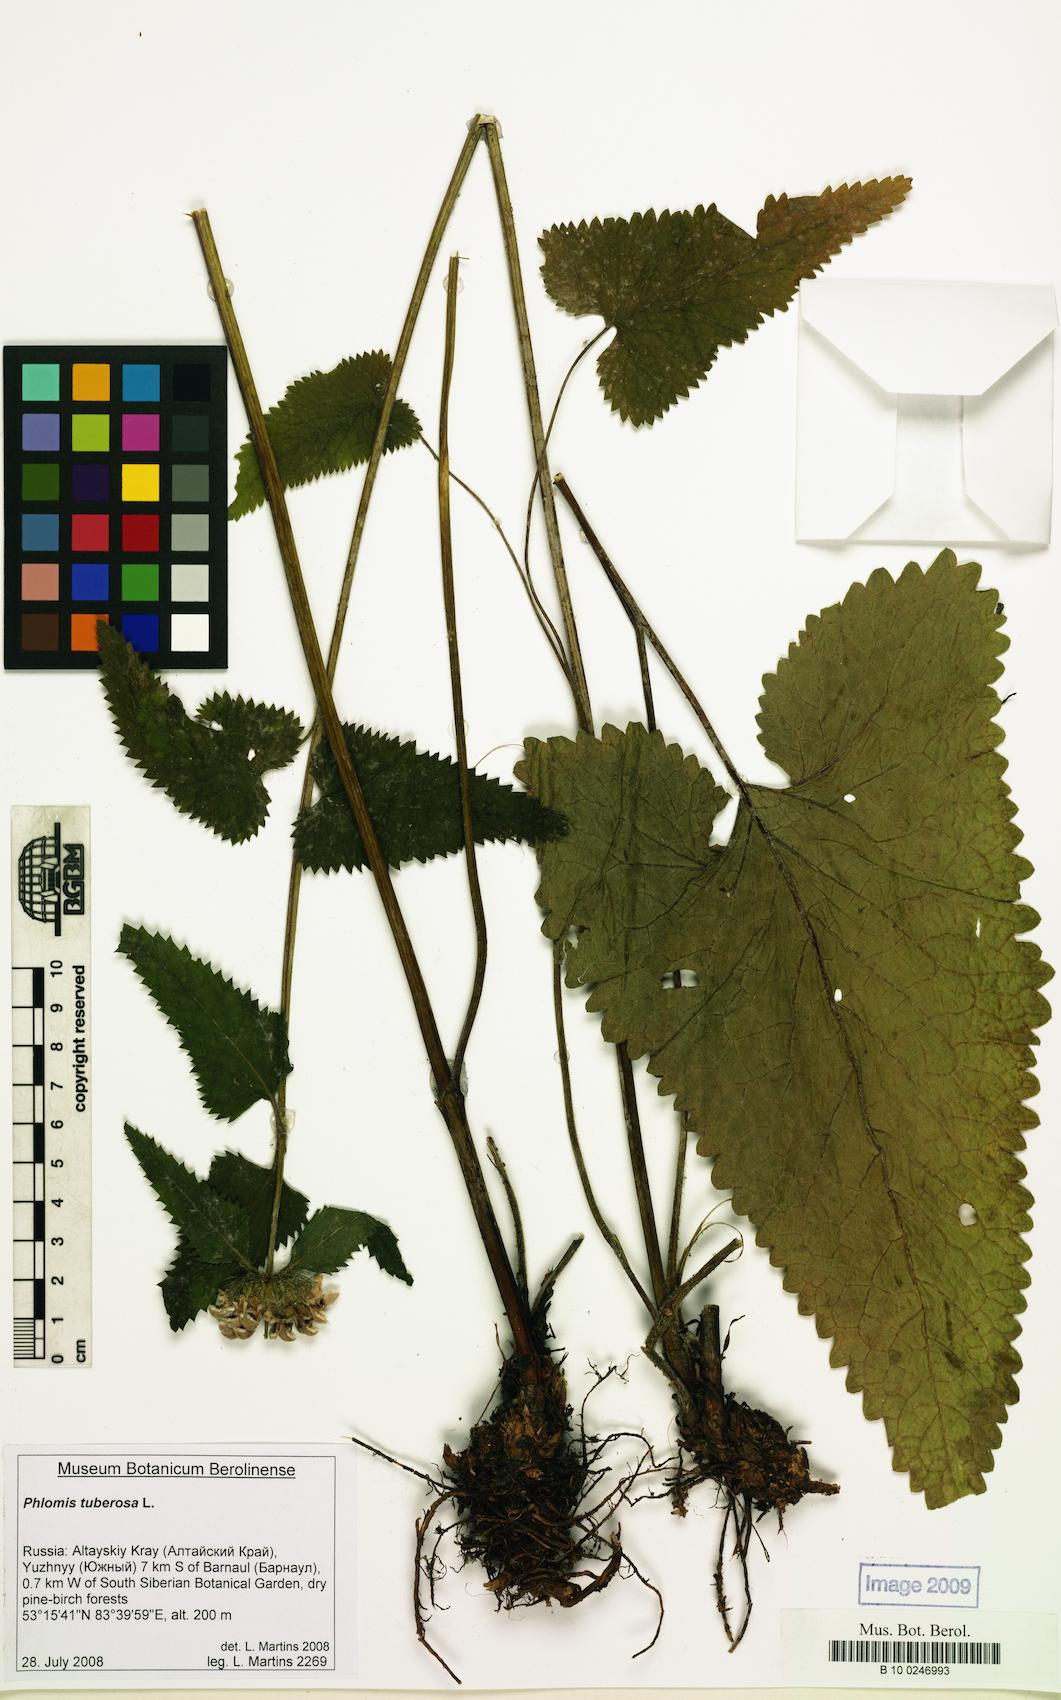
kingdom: Plantae
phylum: Tracheophyta
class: Magnoliopsida
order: Lamiales
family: Lamiaceae
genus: Phlomoides
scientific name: Phlomoides tuberosa
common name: Tuberous jerusalem sage
